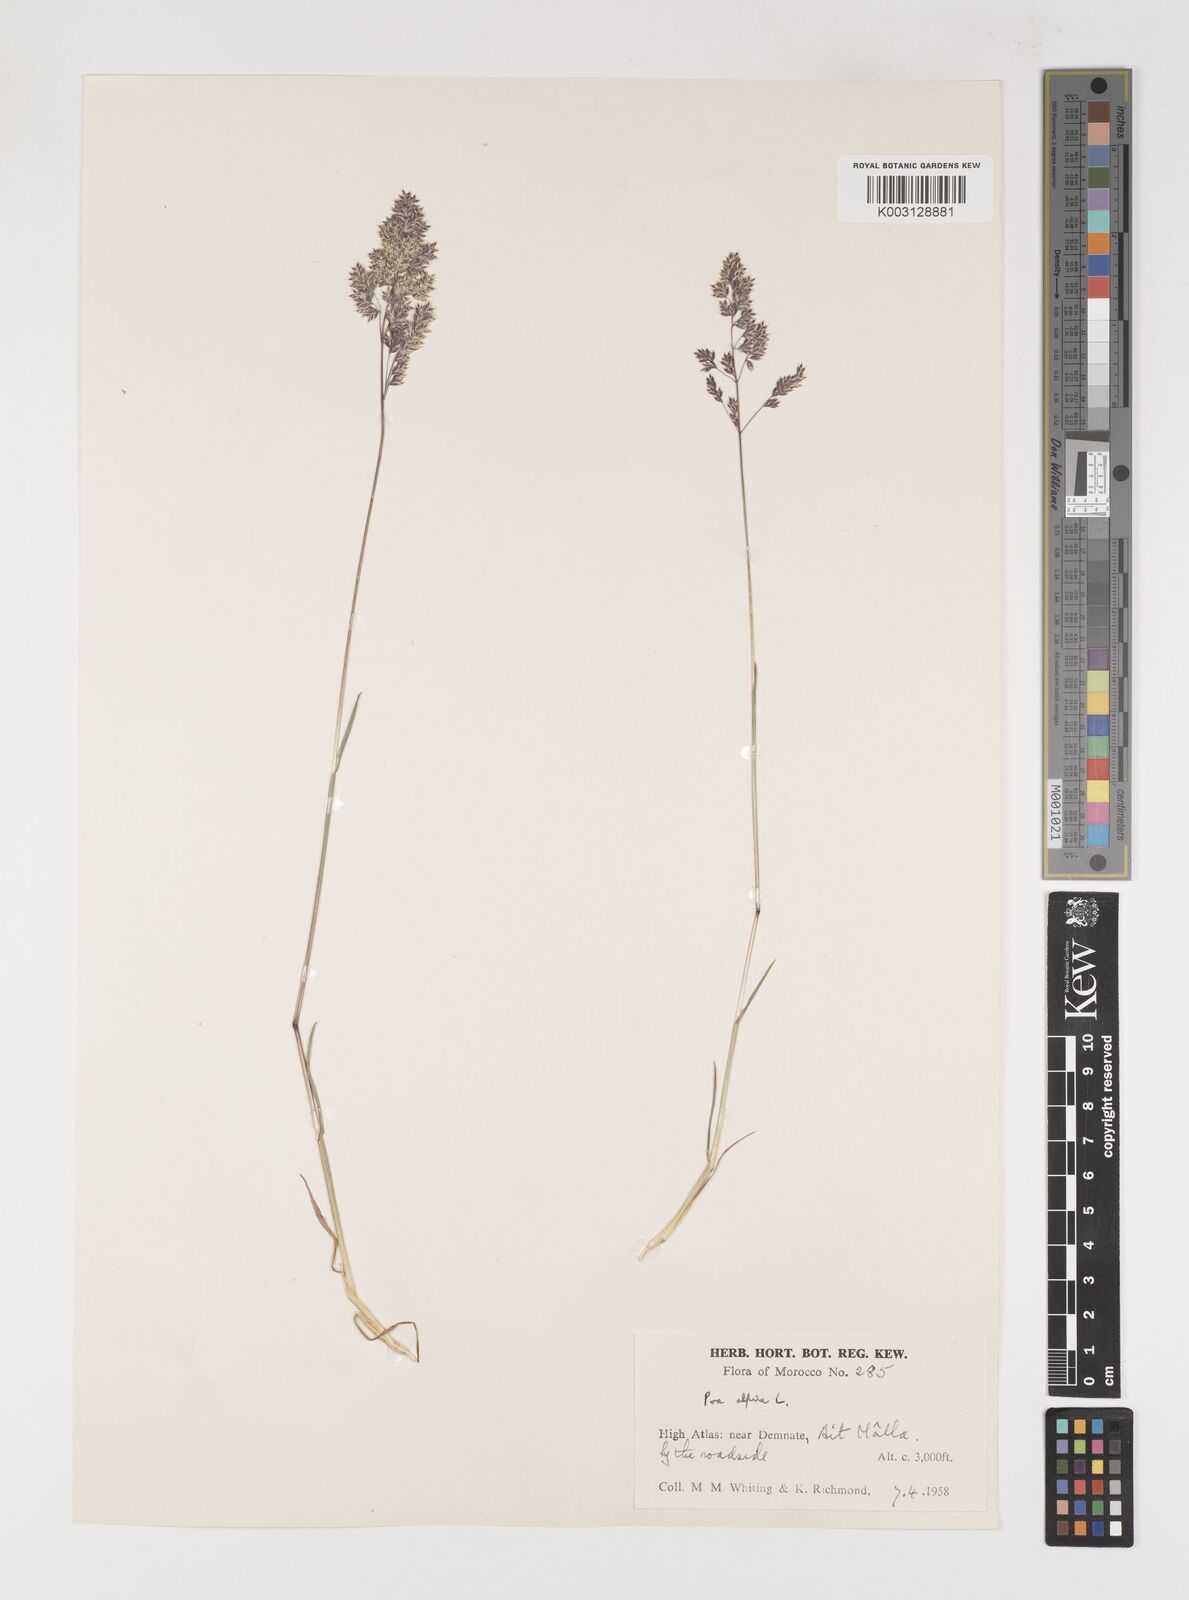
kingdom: Plantae
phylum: Tracheophyta
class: Liliopsida
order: Poales
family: Poaceae
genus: Poa
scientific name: Poa alpina
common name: Alpine bluegrass
